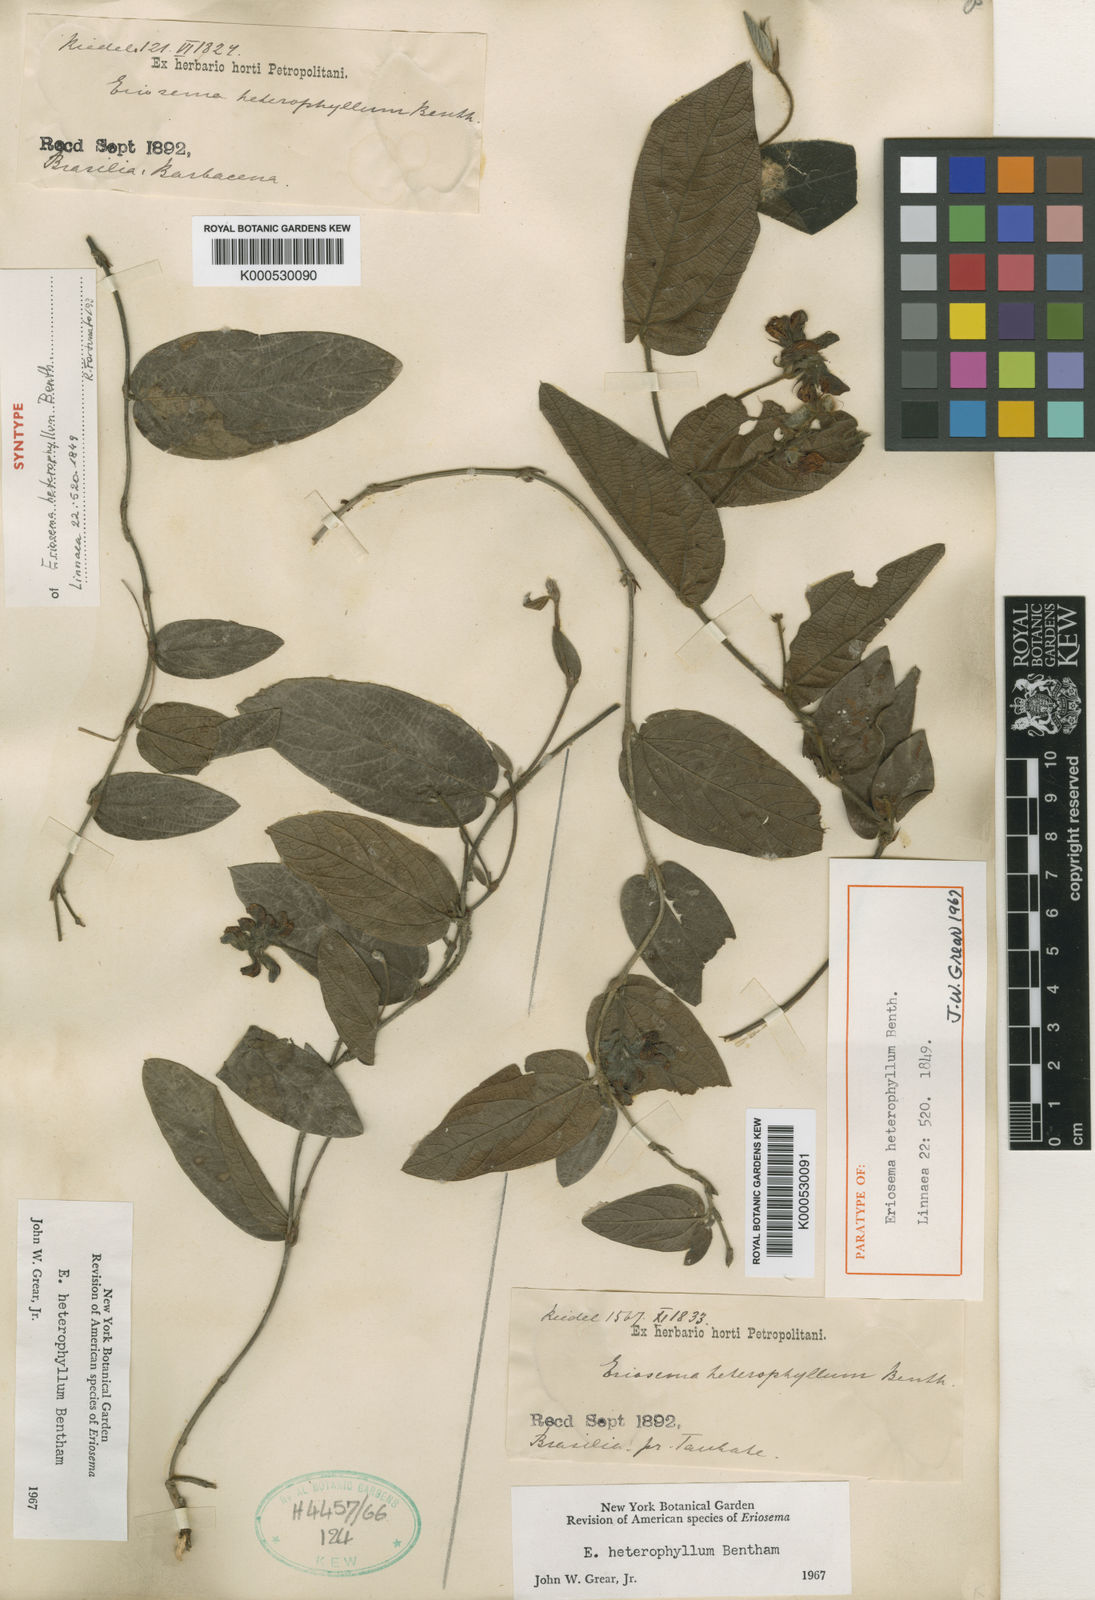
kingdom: Plantae
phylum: Tracheophyta
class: Magnoliopsida
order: Fabales
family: Fabaceae
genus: Eriosema
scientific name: Eriosema heterophyllum
